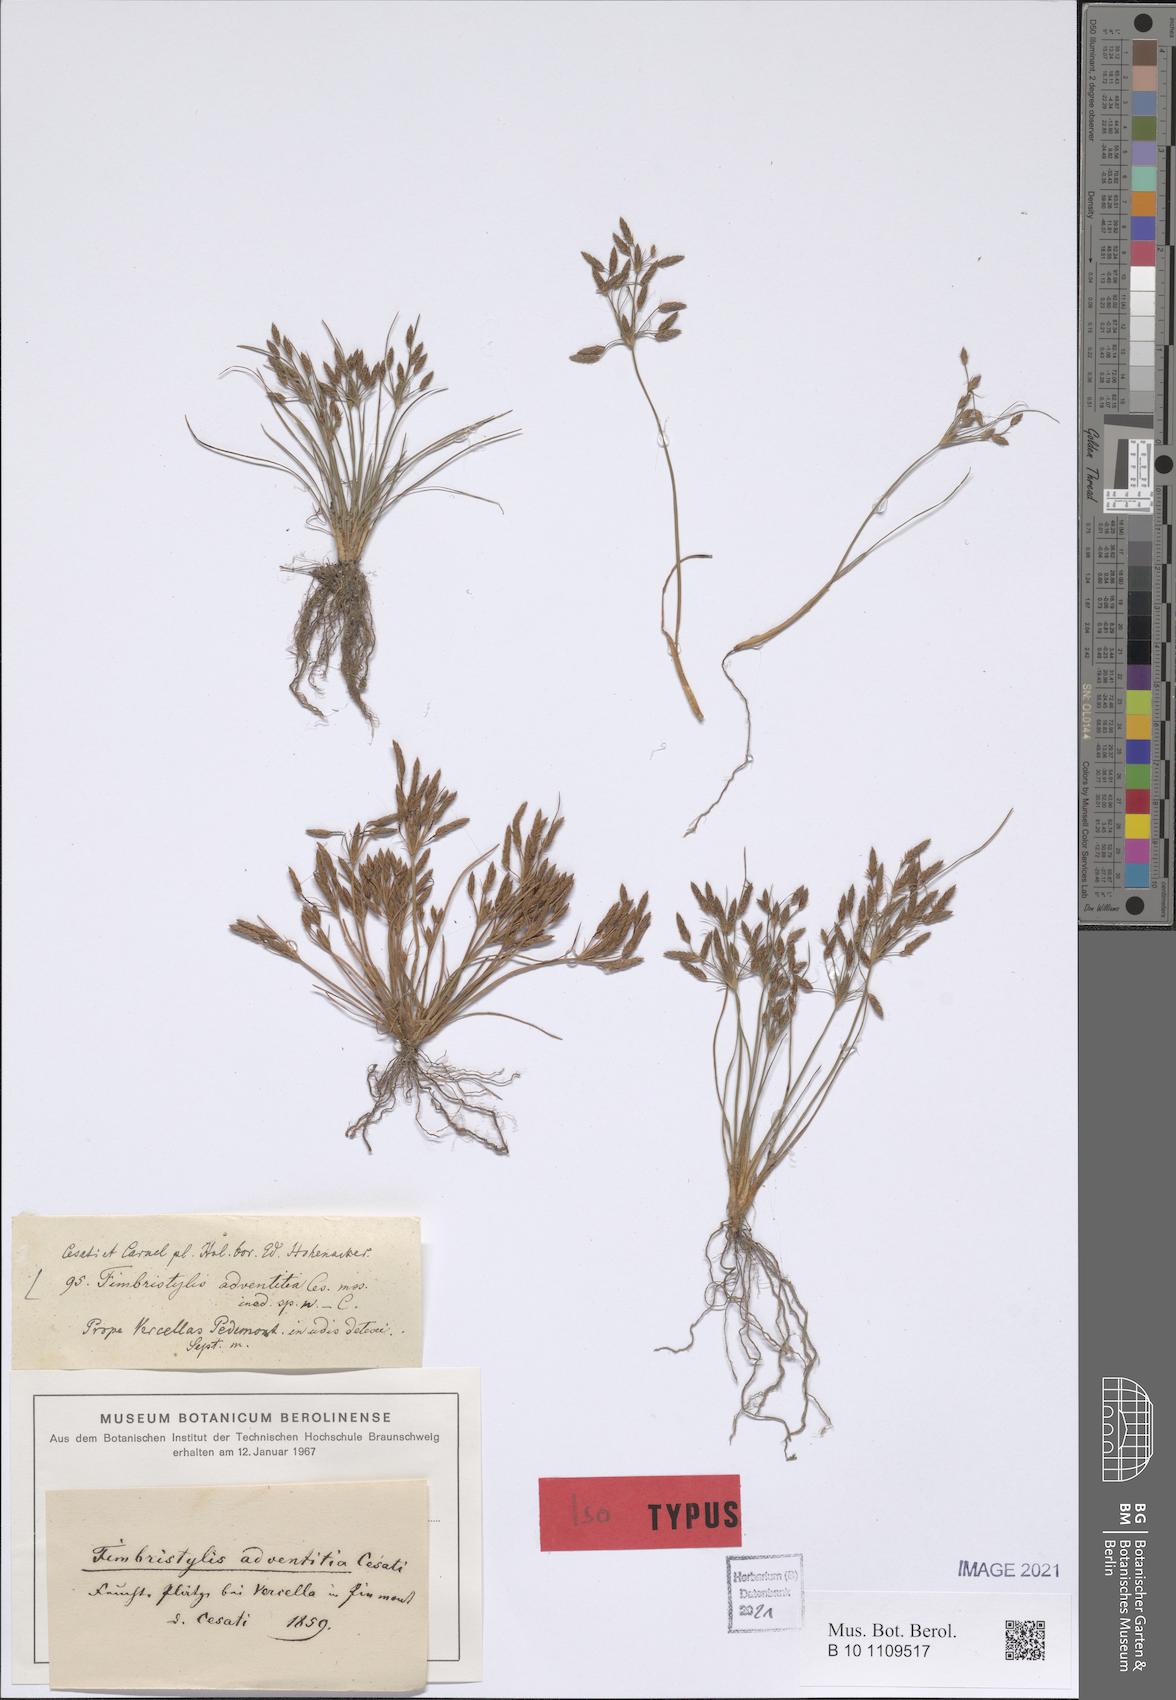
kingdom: Plantae
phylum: Tracheophyta
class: Liliopsida
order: Poales
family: Cyperaceae
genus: Fimbristylis
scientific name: Fimbristylis adventitia
